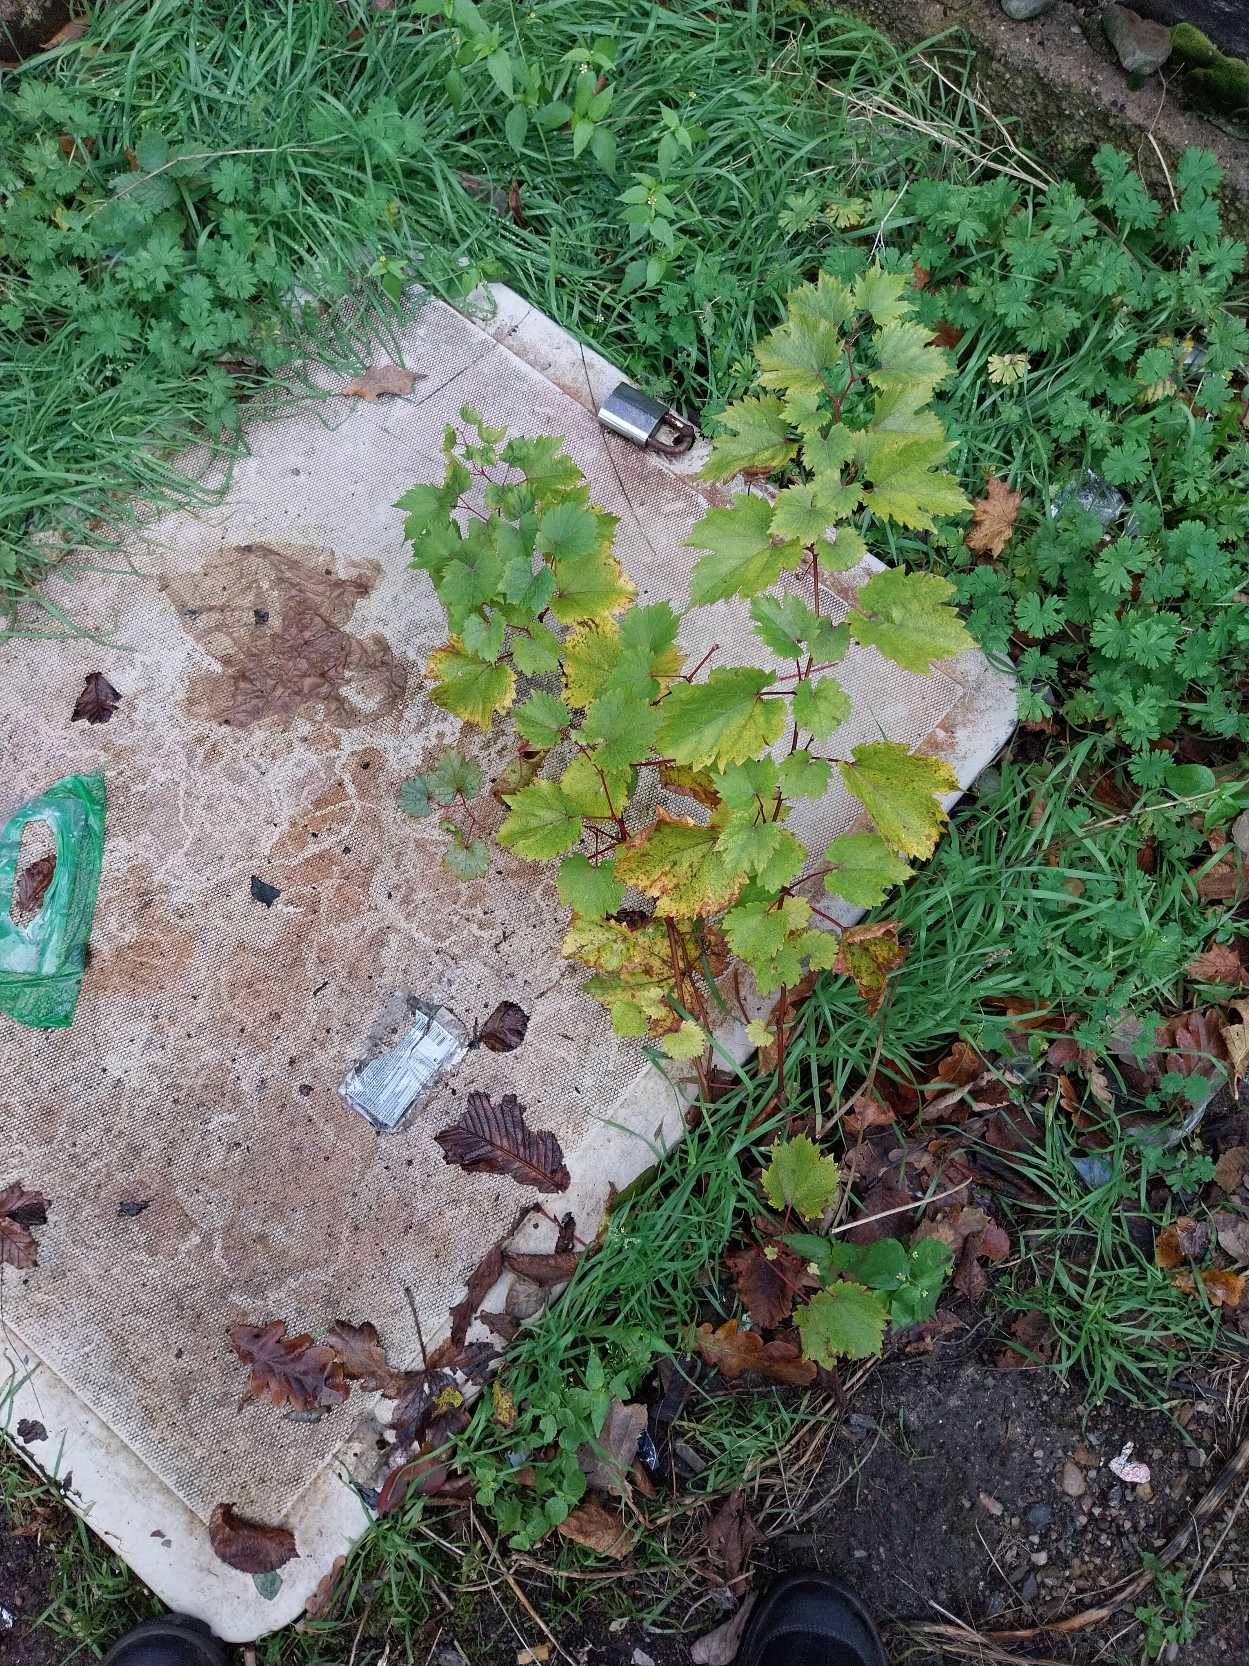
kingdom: Plantae
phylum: Tracheophyta
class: Magnoliopsida
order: Vitales
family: Vitaceae
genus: Vitis
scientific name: Vitis vinifera
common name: Almindelig vin
